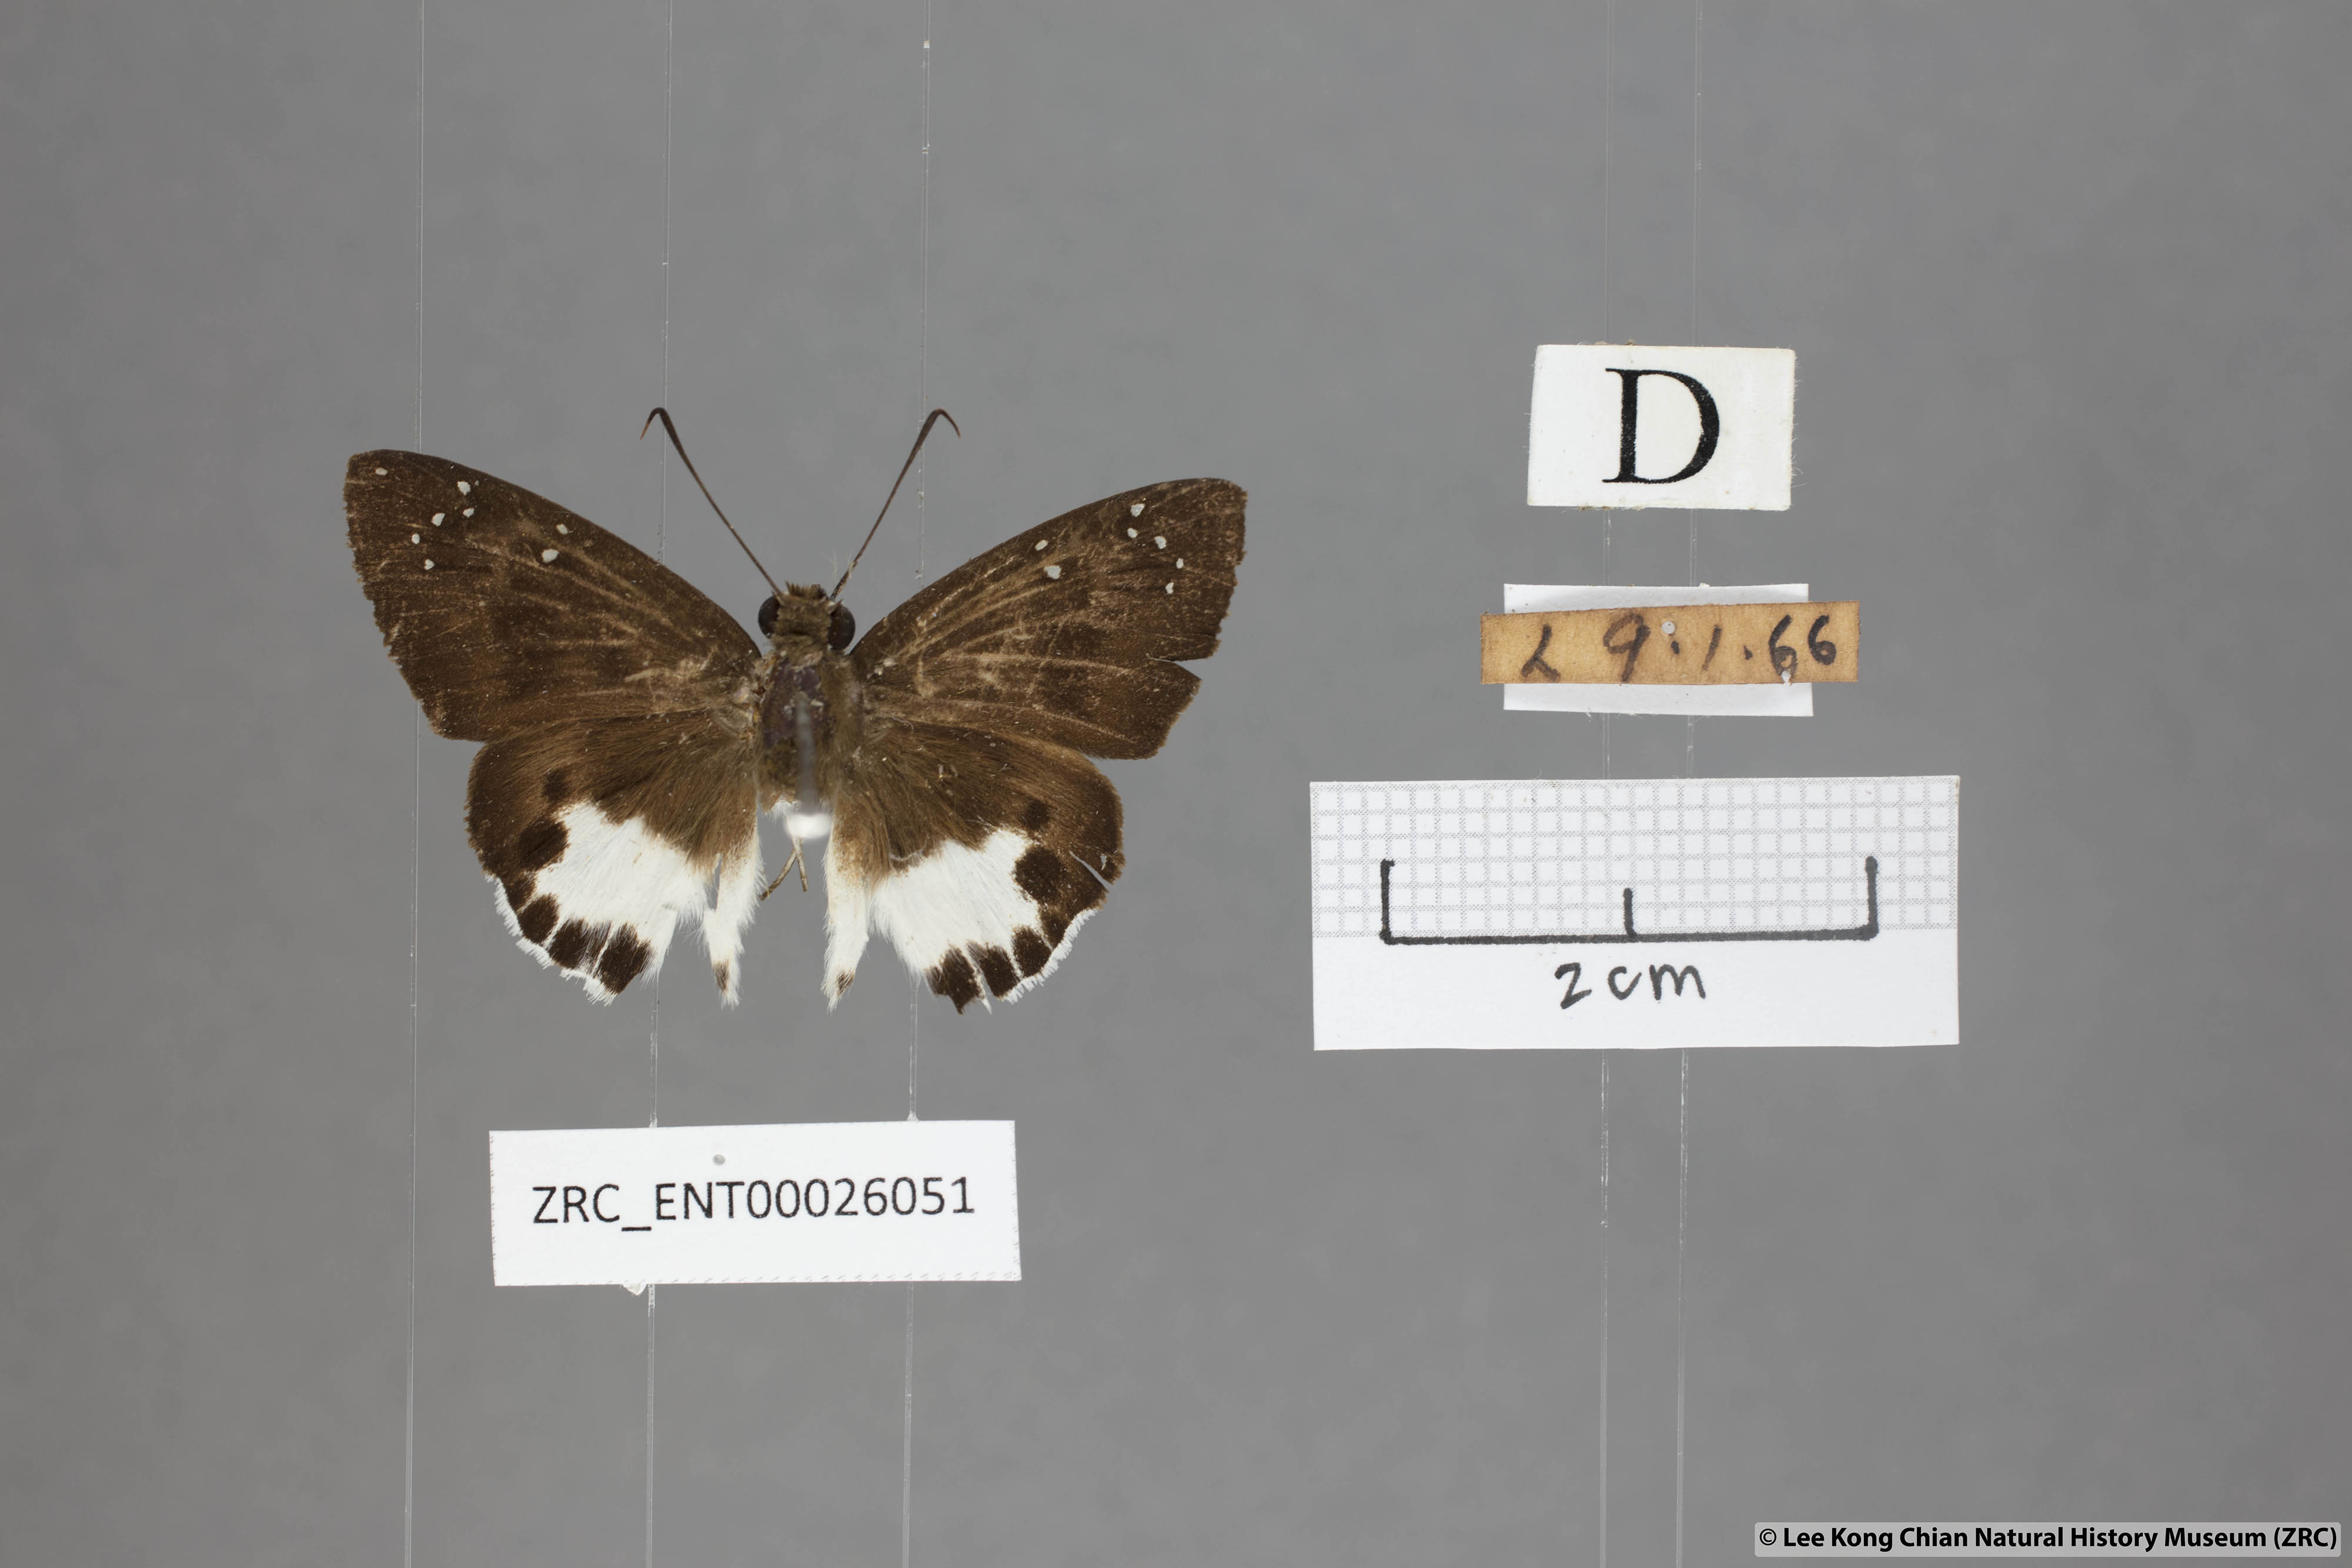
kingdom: Animalia
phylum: Arthropoda
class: Insecta
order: Lepidoptera
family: Hesperiidae
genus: Tagiades
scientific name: Tagiades litigiosa
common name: Water snow flat
